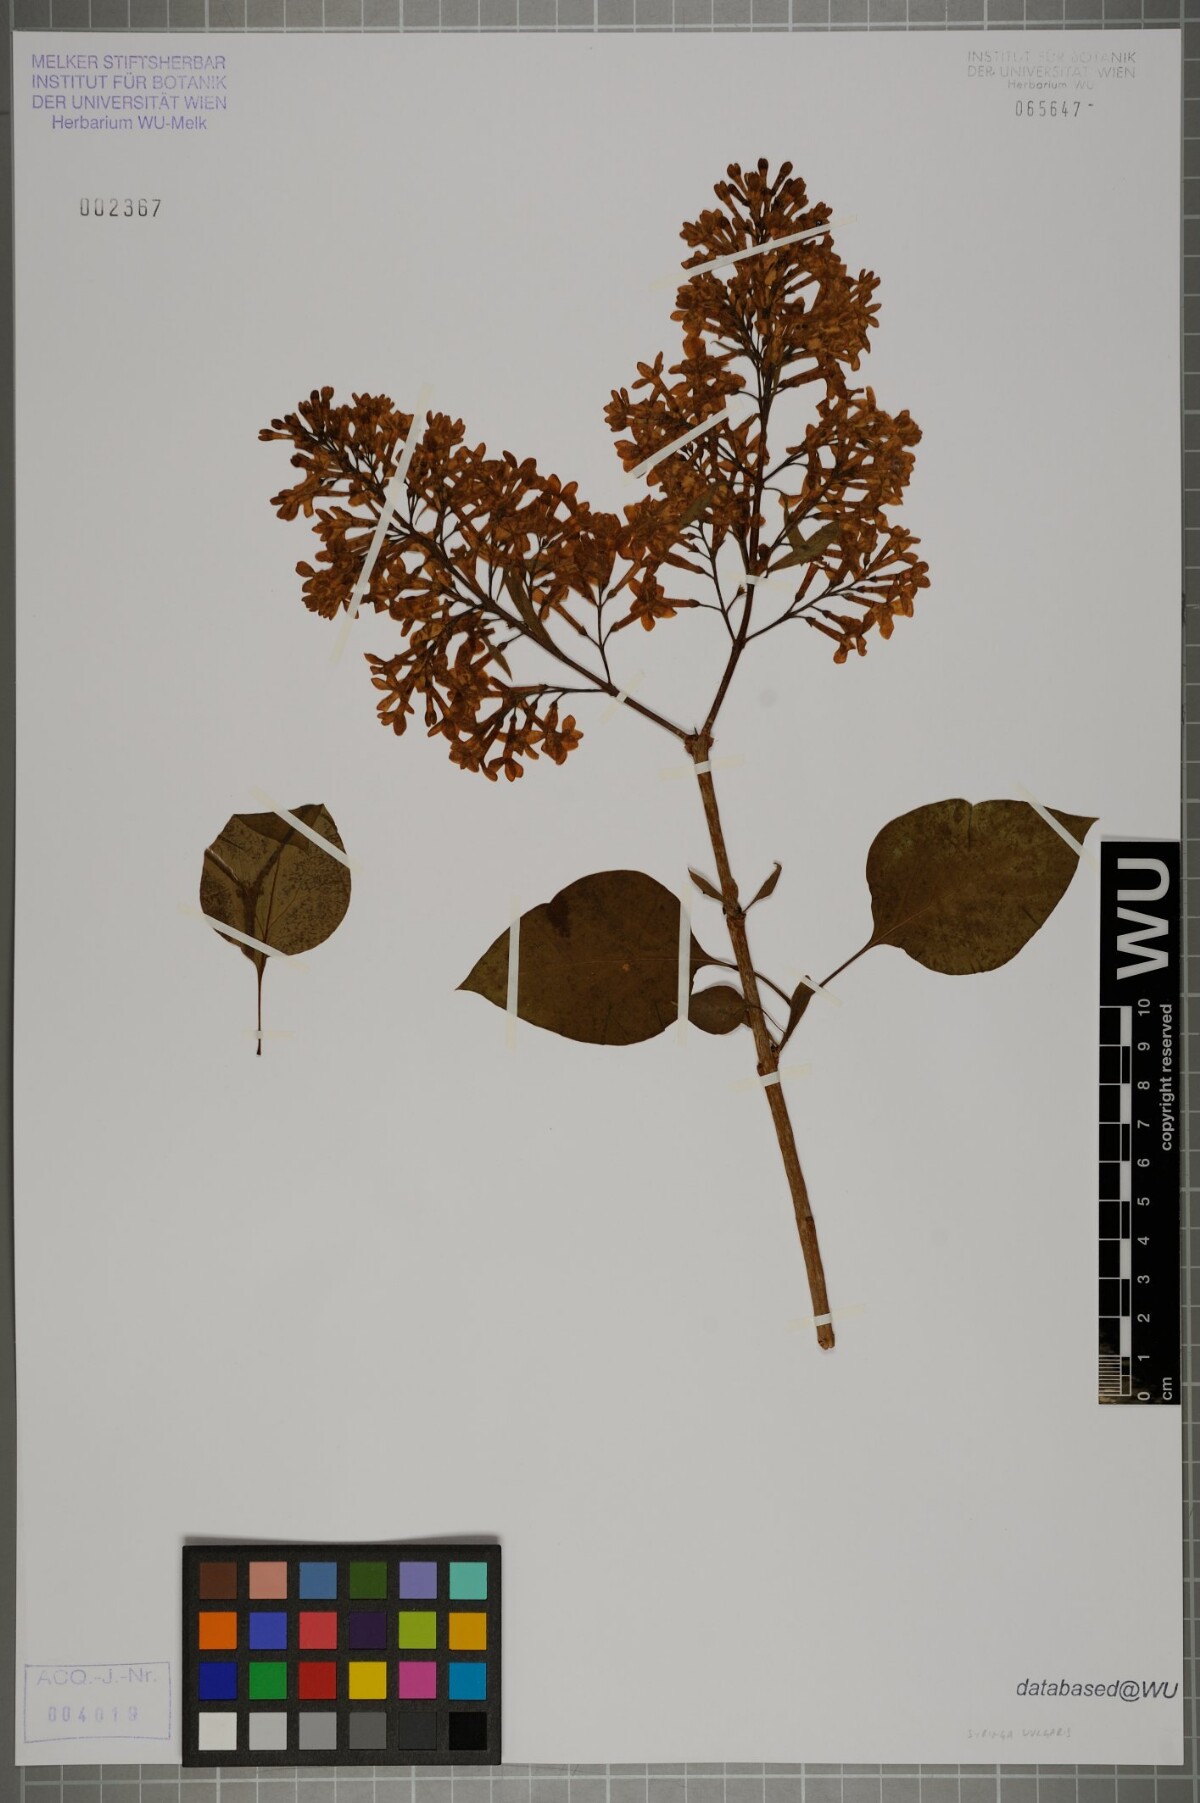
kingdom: Plantae
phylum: Tracheophyta
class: Magnoliopsida
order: Lamiales
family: Oleaceae
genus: Syringa
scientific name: Syringa vulgaris
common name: Common lilac
